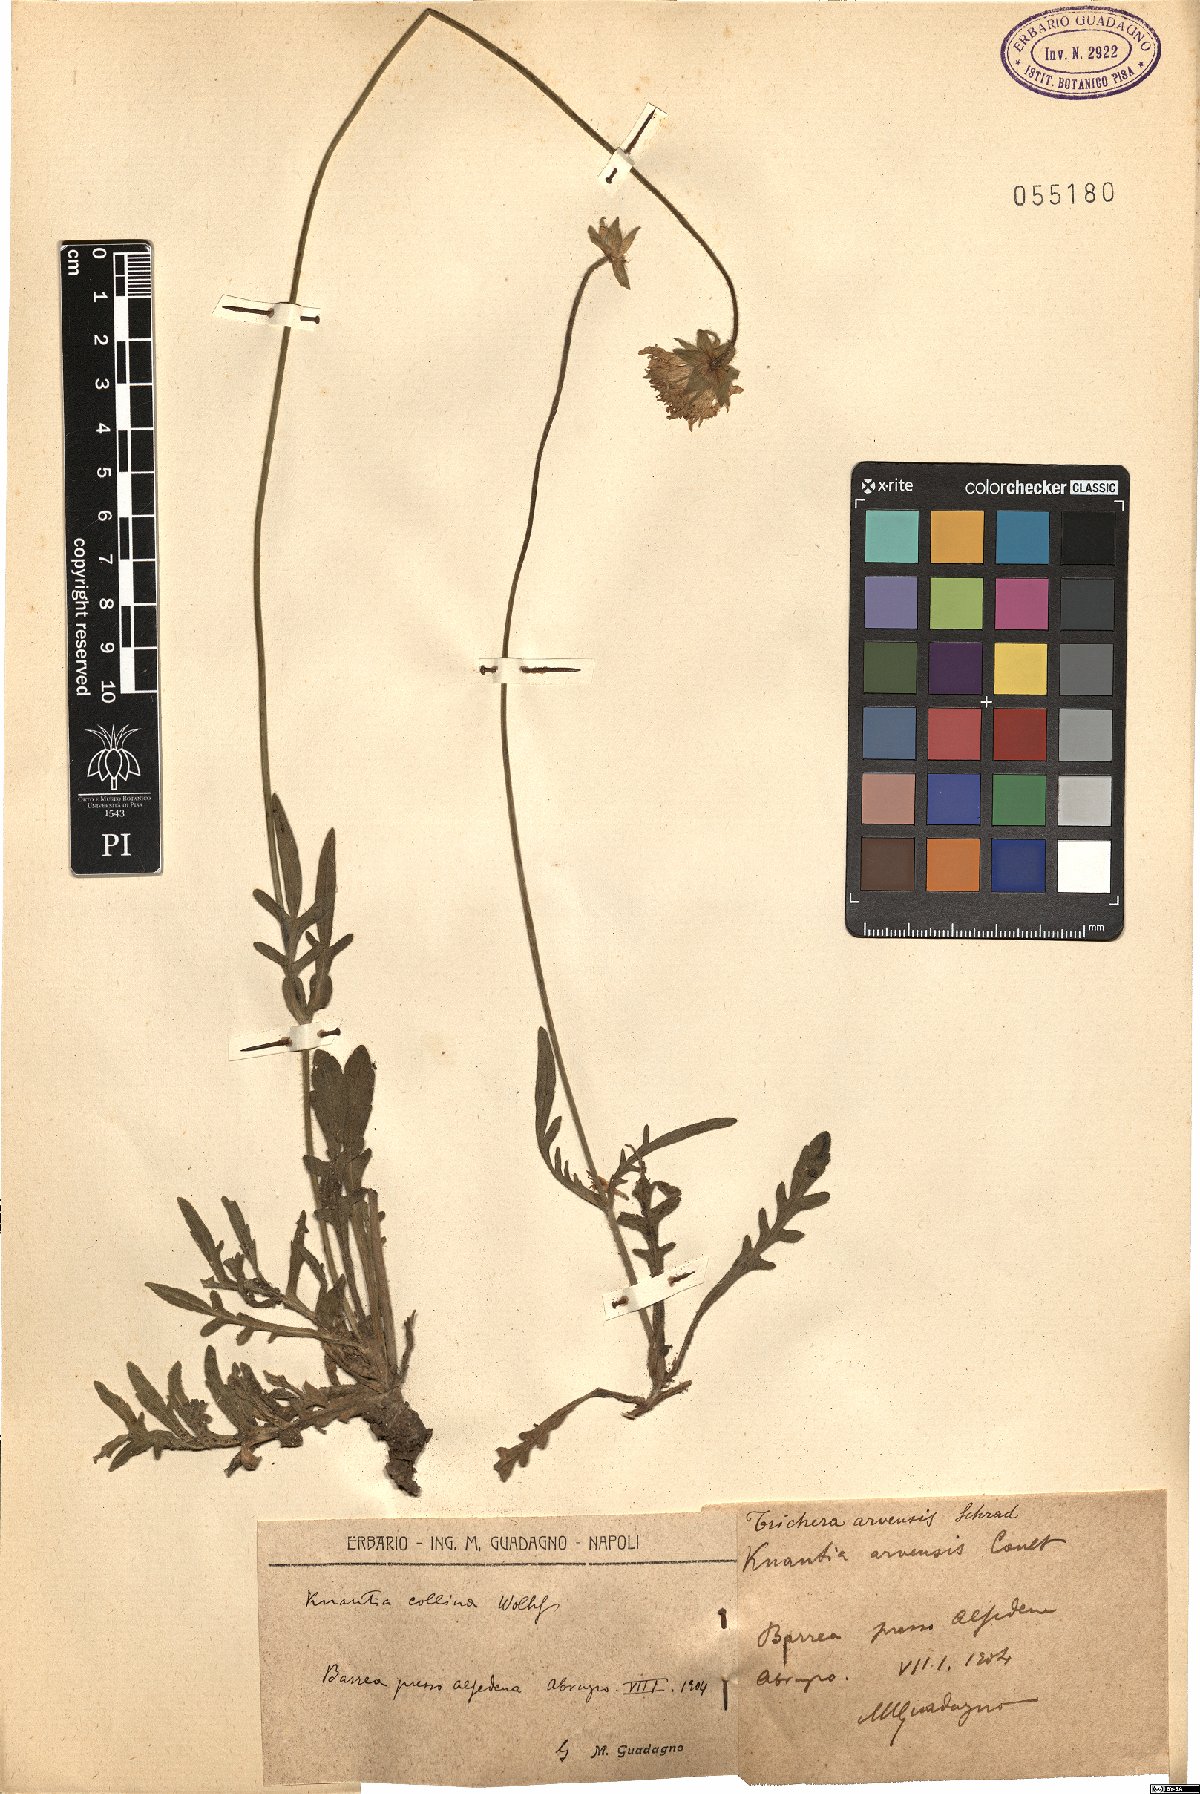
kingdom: Plantae
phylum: Tracheophyta
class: Magnoliopsida
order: Dipsacales
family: Caprifoliaceae
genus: Knautia
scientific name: Knautia collina
